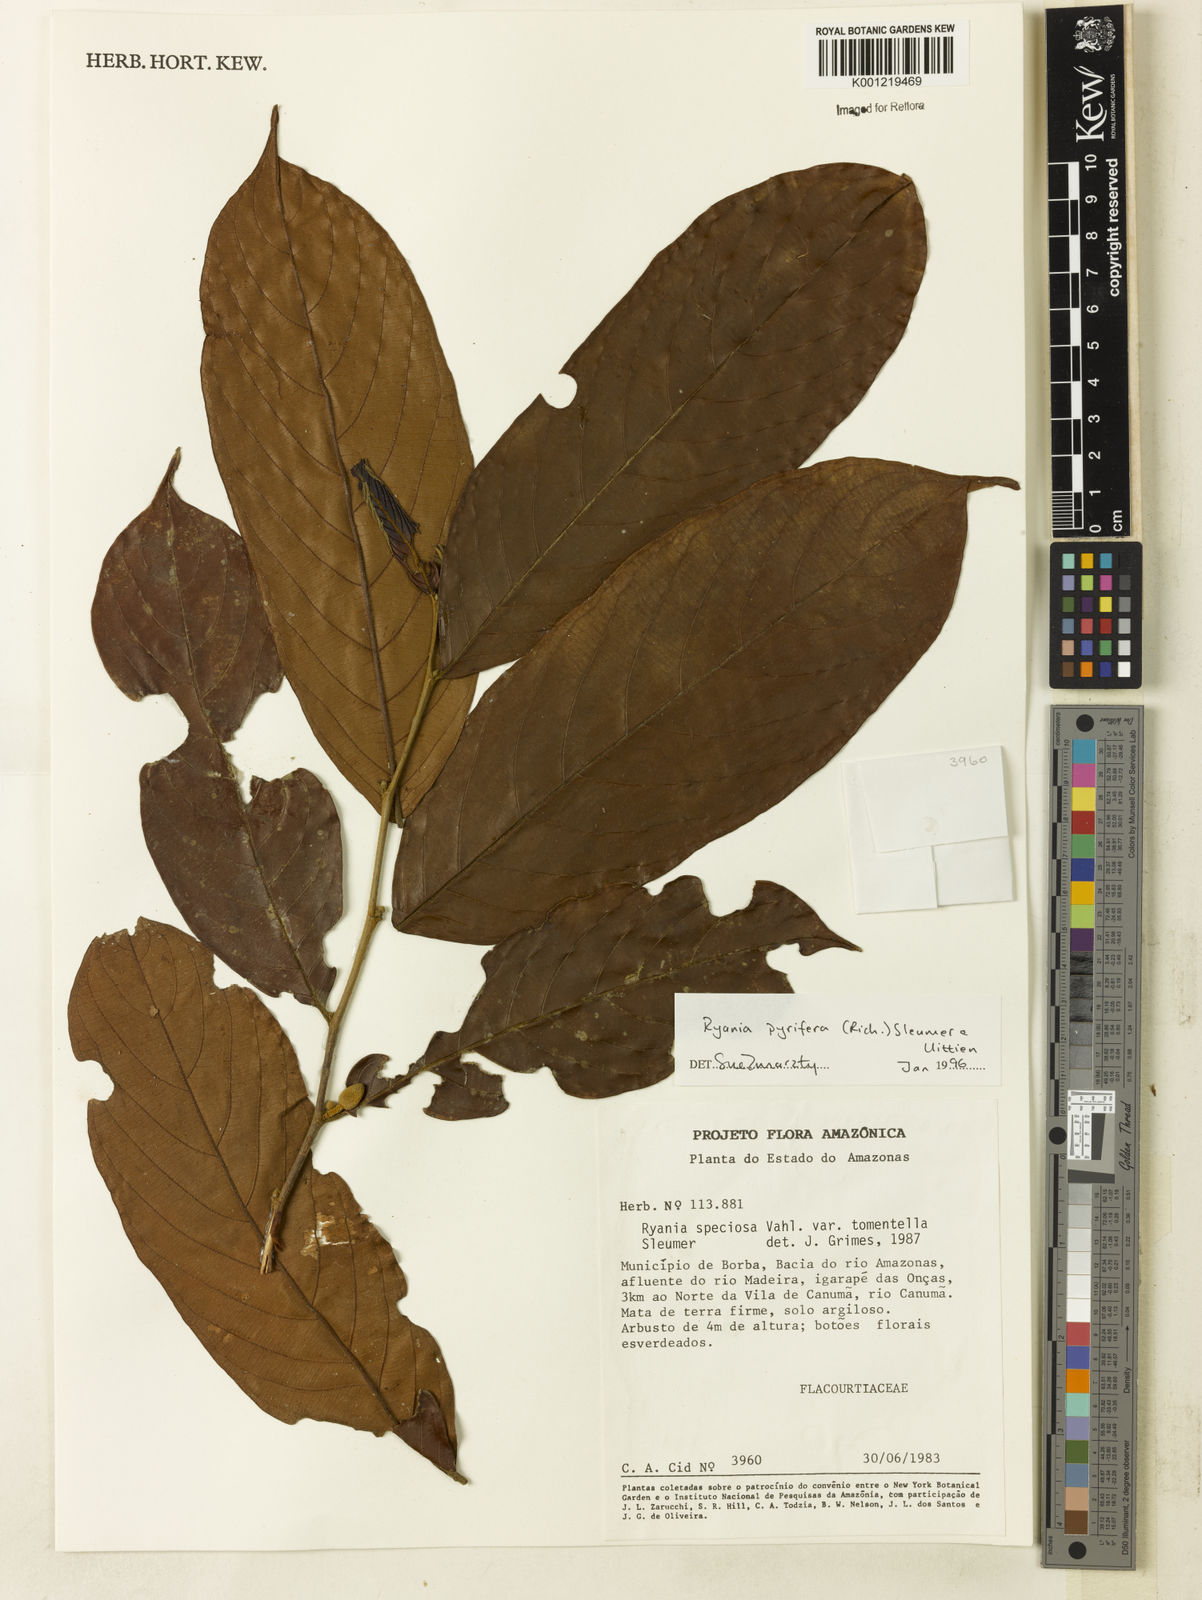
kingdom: Plantae
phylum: Tracheophyta
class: Magnoliopsida
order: Malpighiales
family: Salicaceae
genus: Ryania
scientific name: Ryania pyrifera
